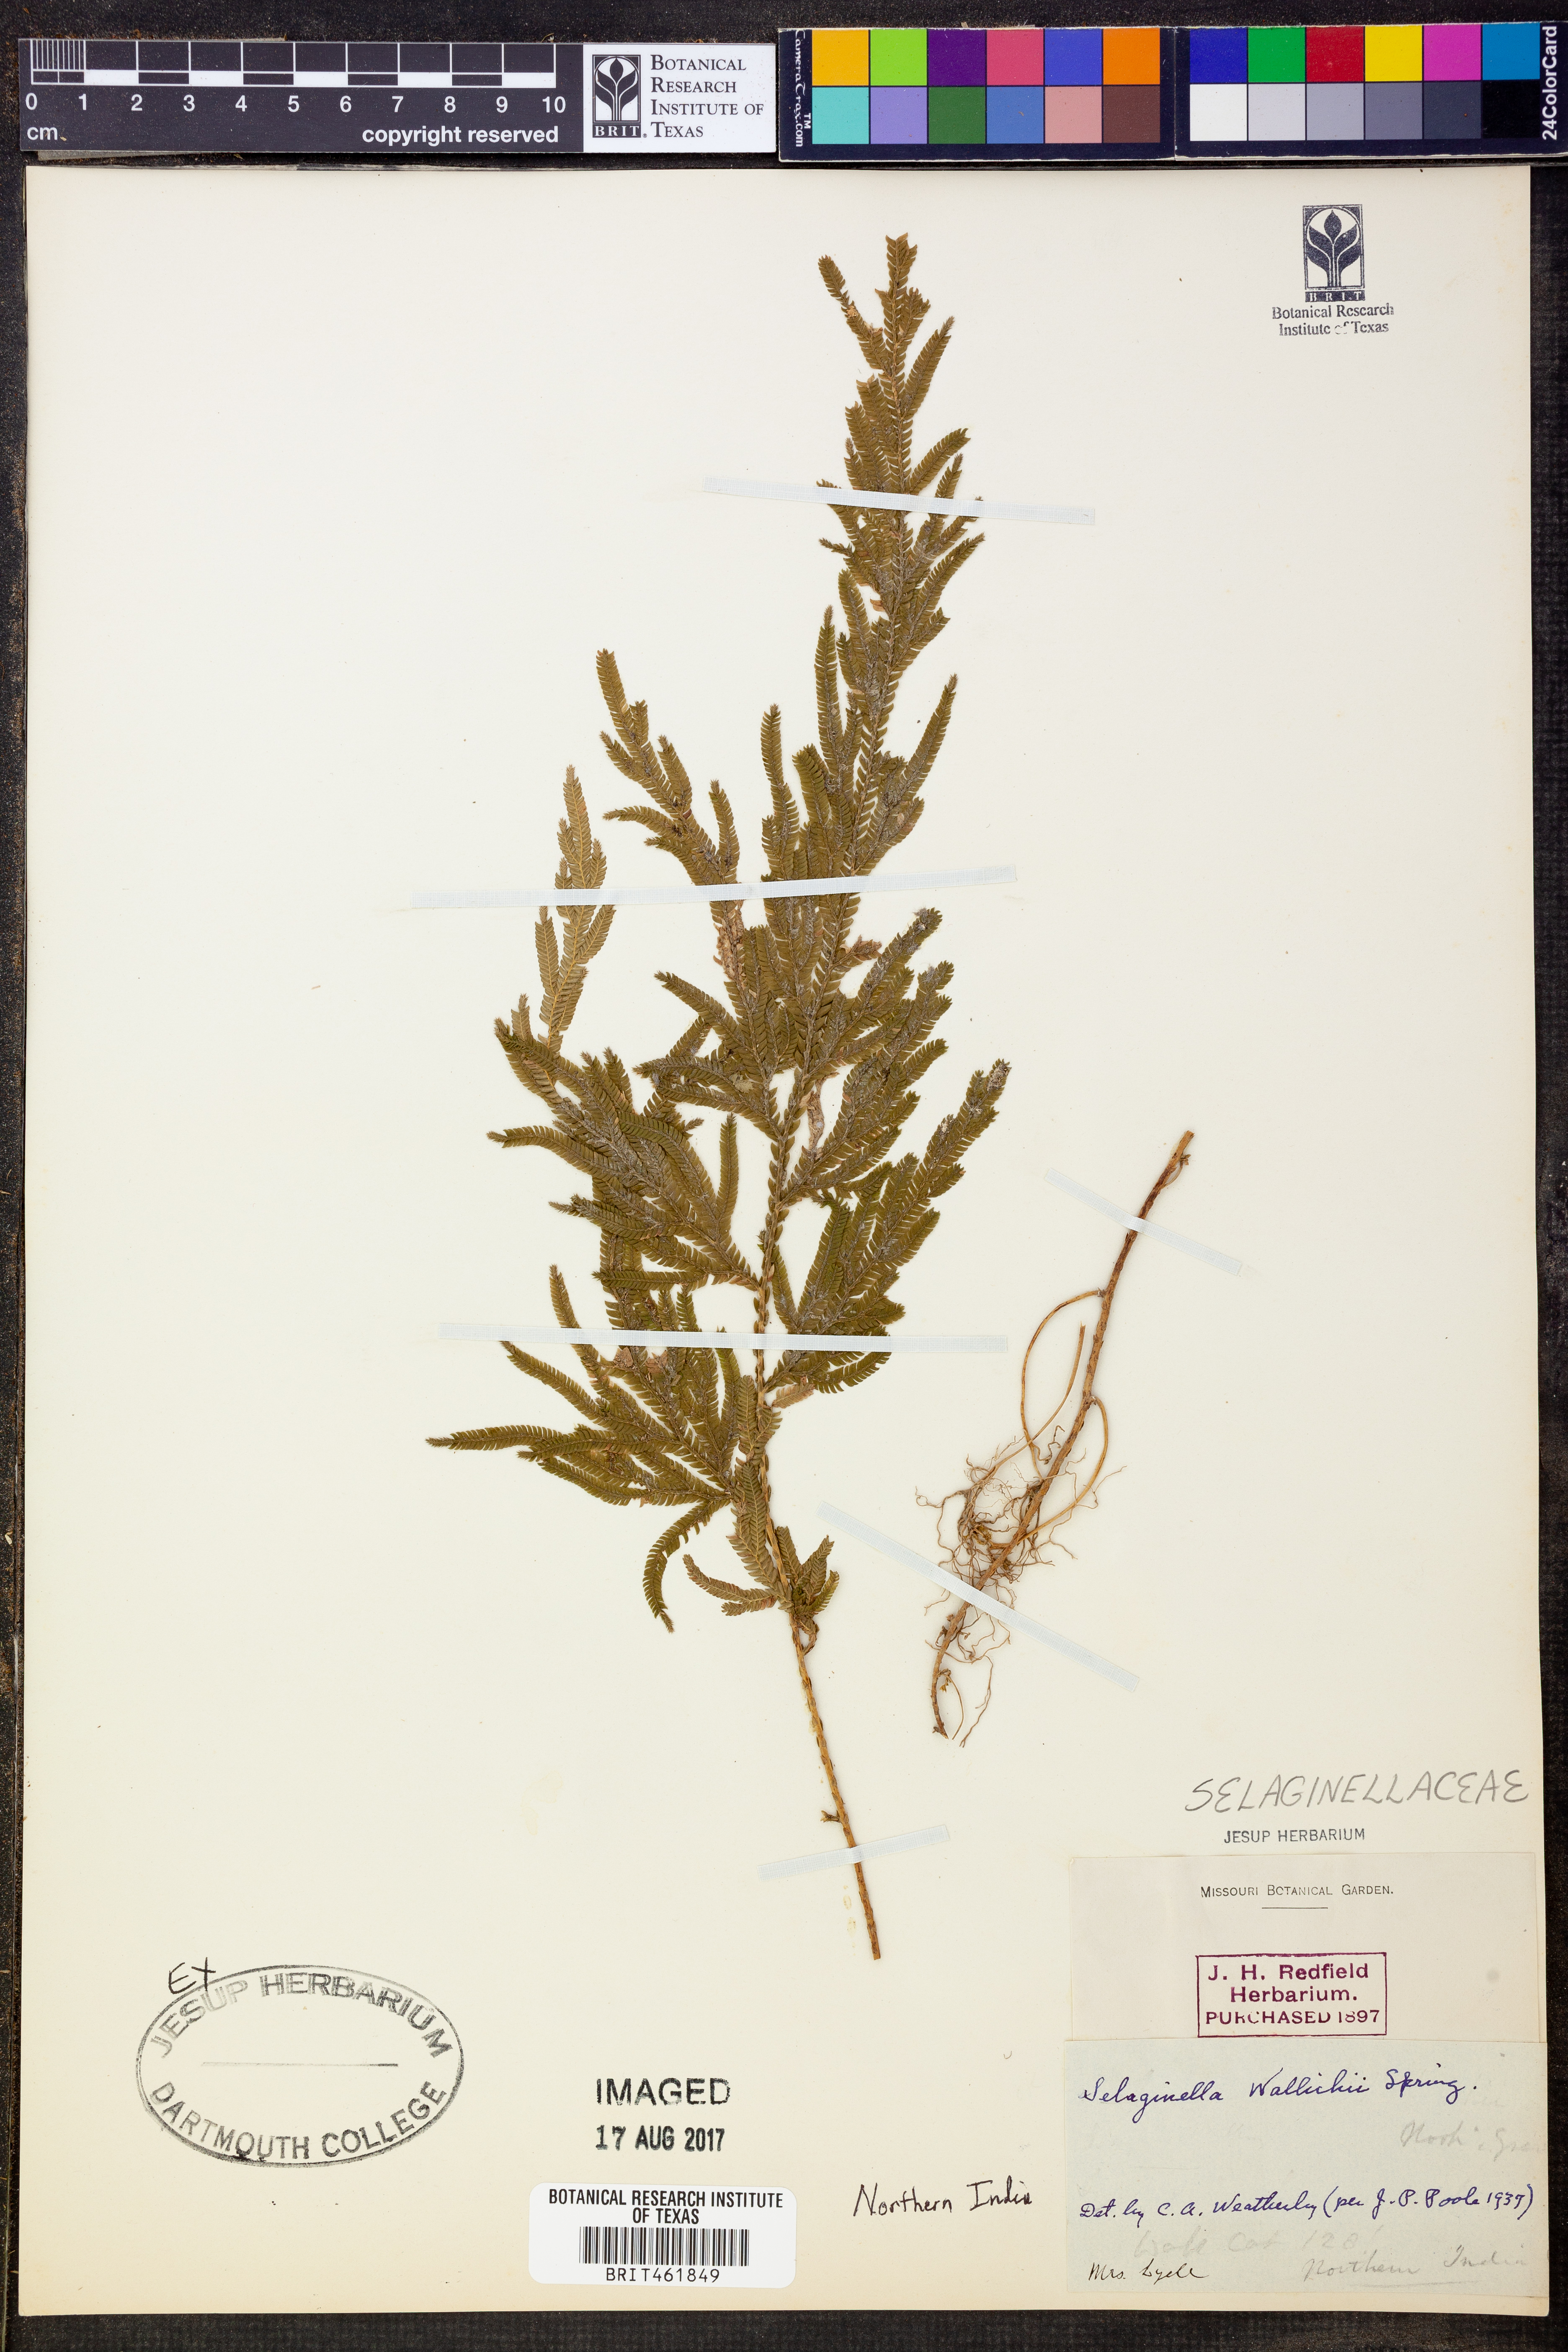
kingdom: Plantae
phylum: Tracheophyta
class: Lycopodiopsida
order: Selaginellales
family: Selaginellaceae
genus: Selaginella
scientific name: Selaginella wallichii
